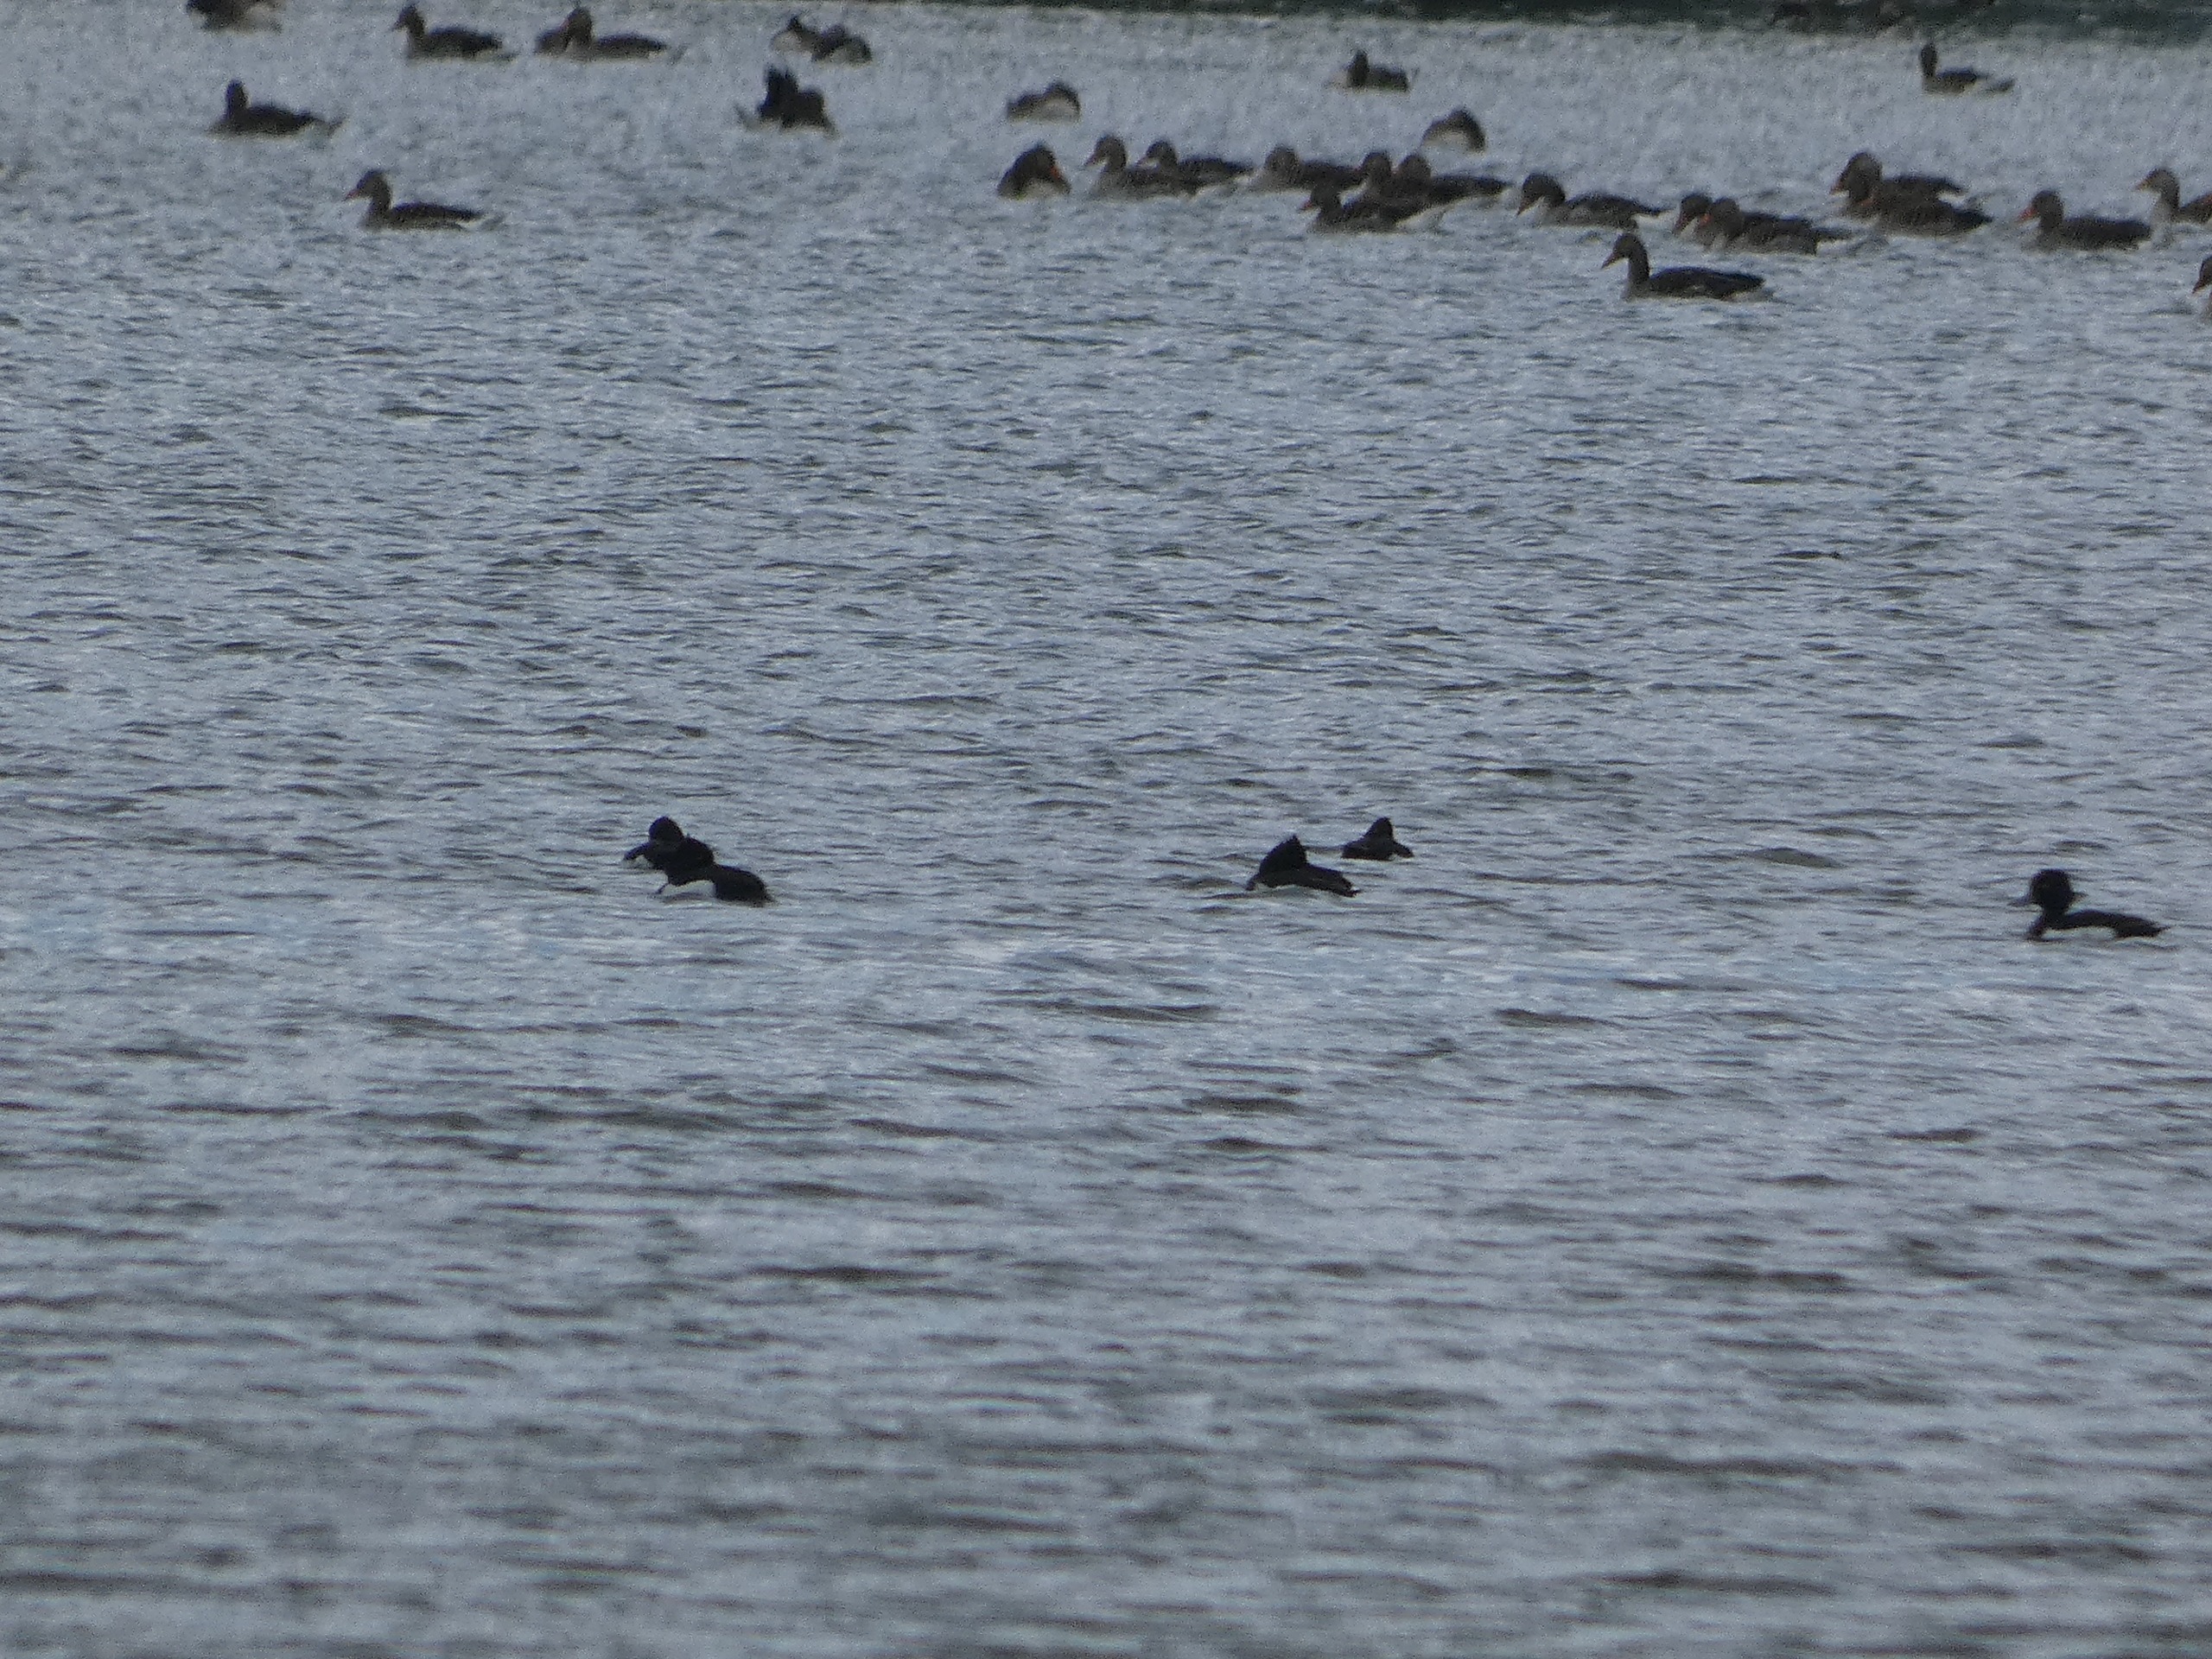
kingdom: Animalia
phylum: Chordata
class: Aves
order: Anseriformes
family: Anatidae
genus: Aythya
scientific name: Aythya fuligula
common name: Troldand
